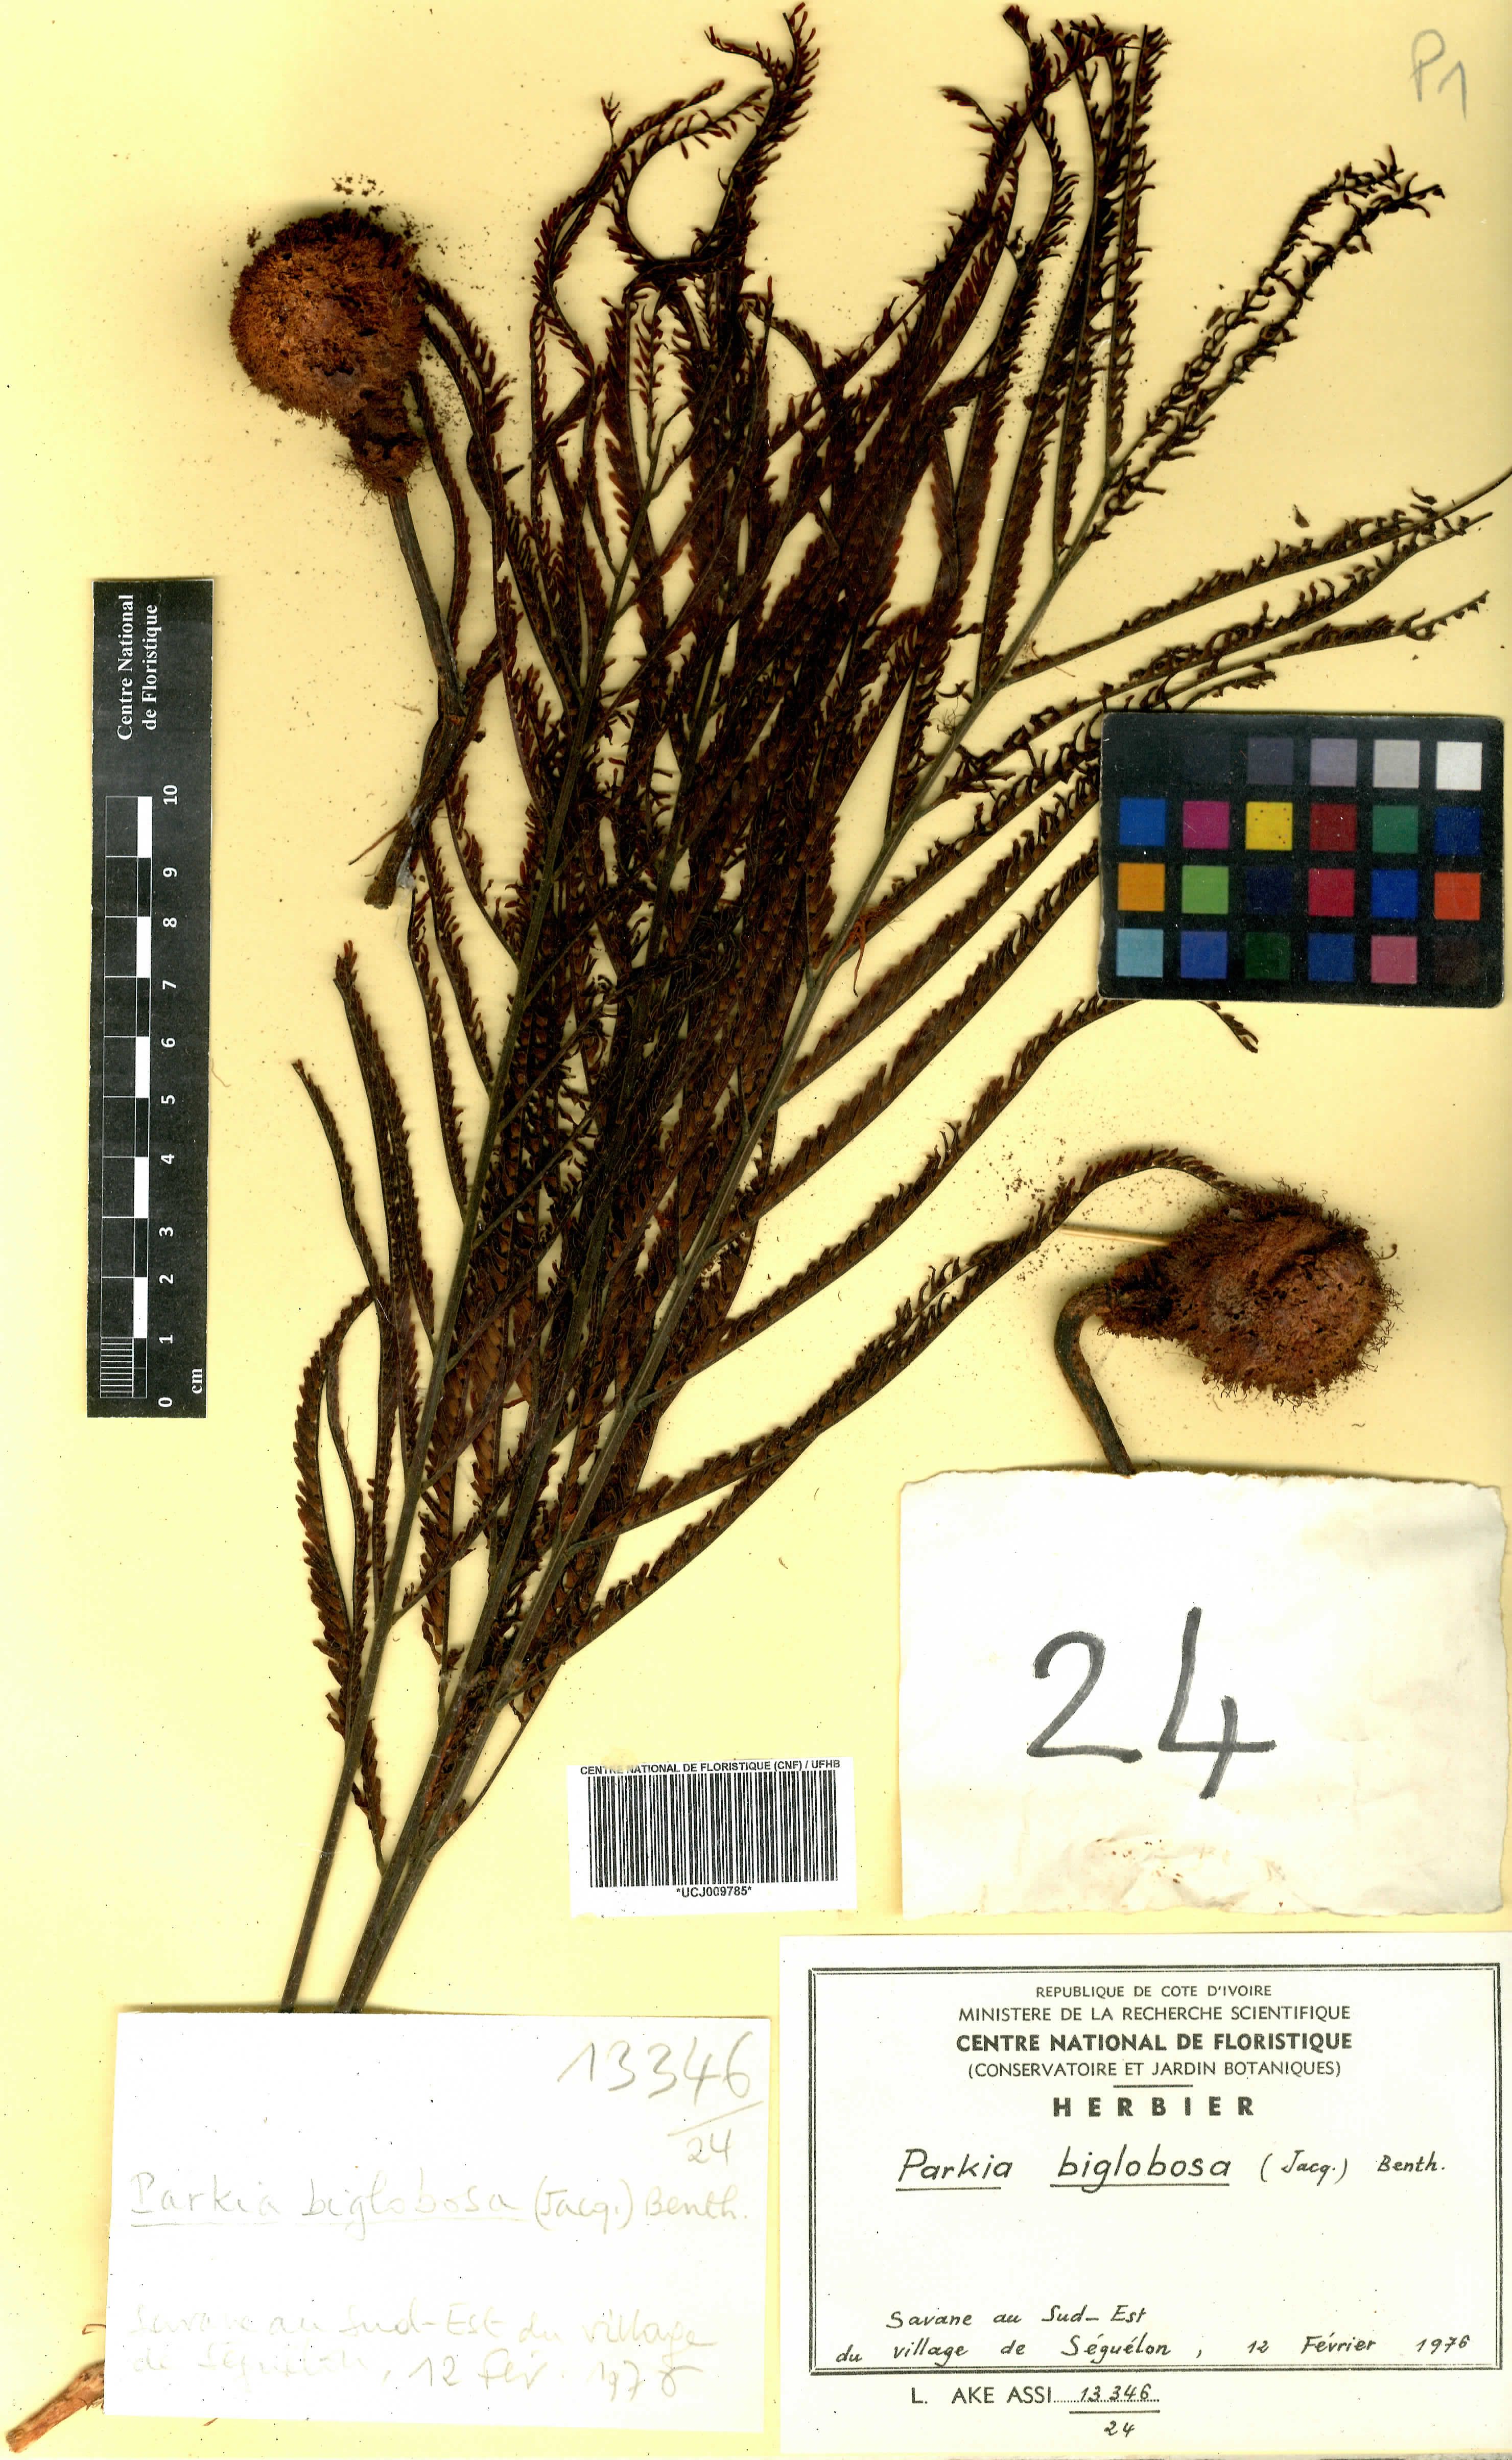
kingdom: Plantae
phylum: Tracheophyta
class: Magnoliopsida
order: Fabales
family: Fabaceae
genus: Parkia
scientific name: Parkia timoriana
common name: Legume
